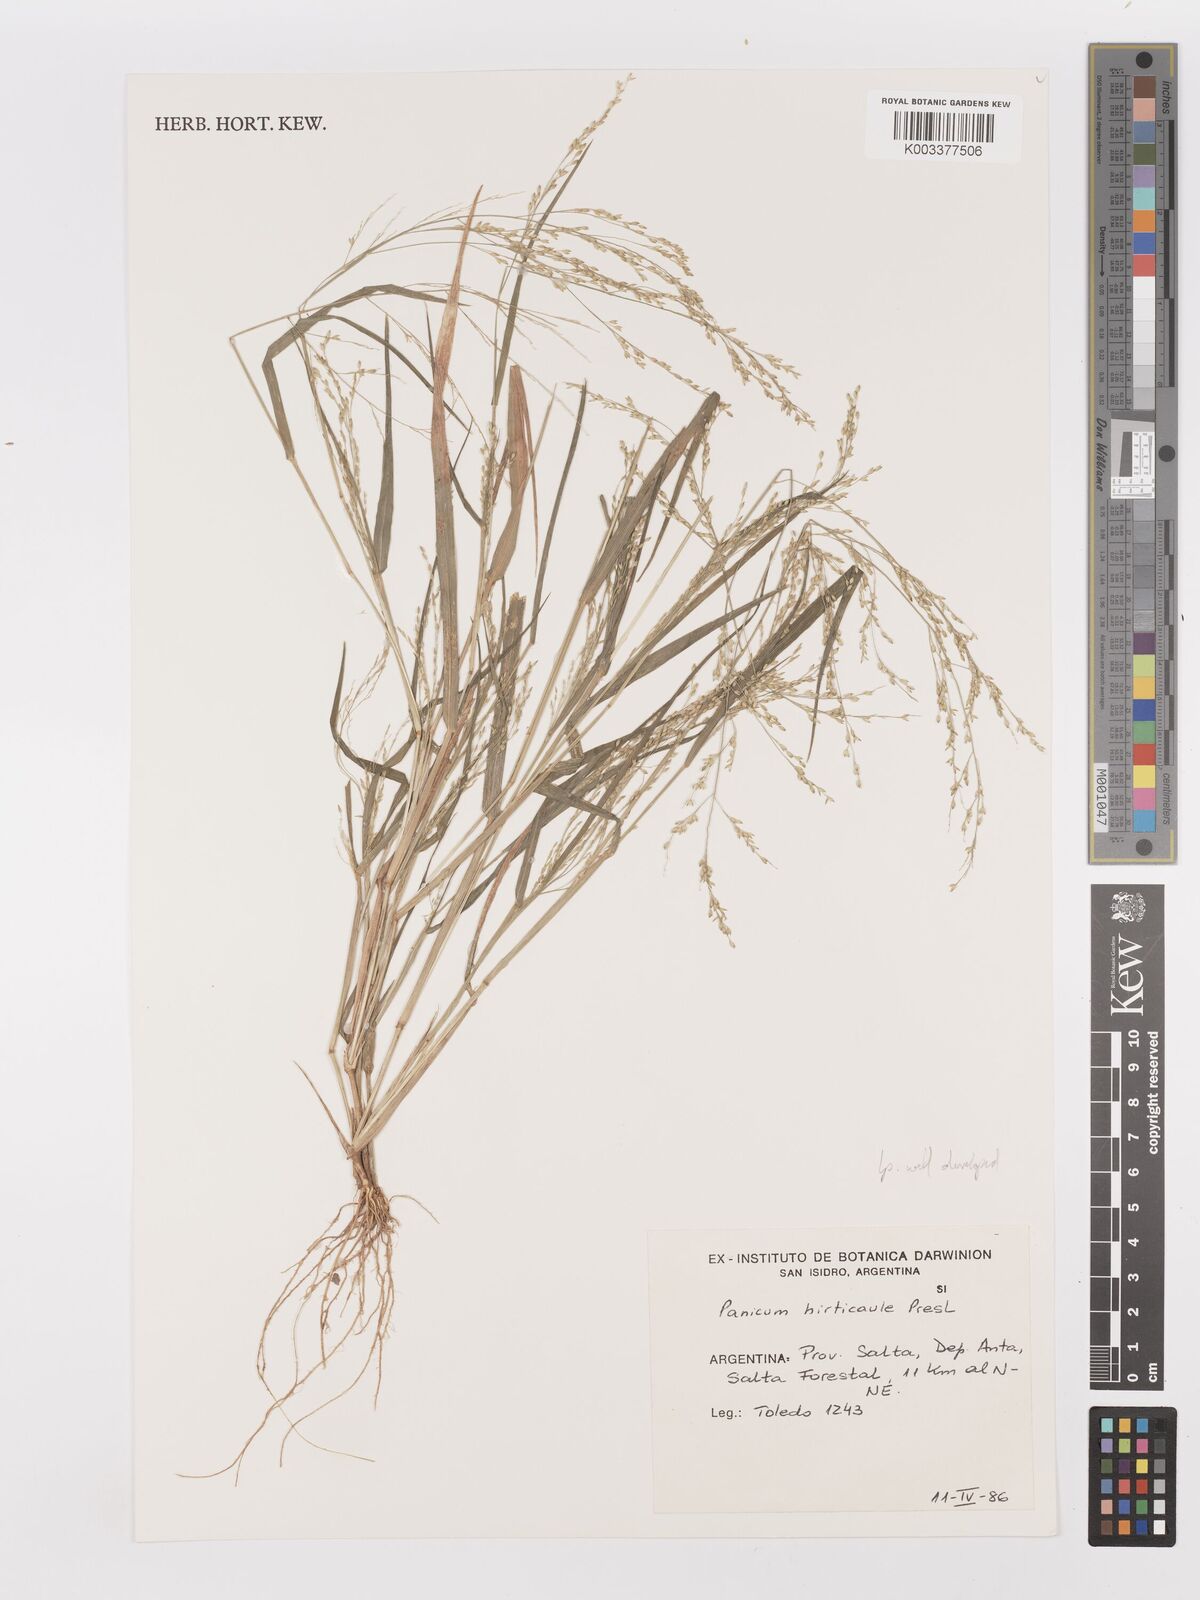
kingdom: Plantae
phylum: Tracheophyta
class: Liliopsida
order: Poales
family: Poaceae
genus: Panicum
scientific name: Panicum stramineum
